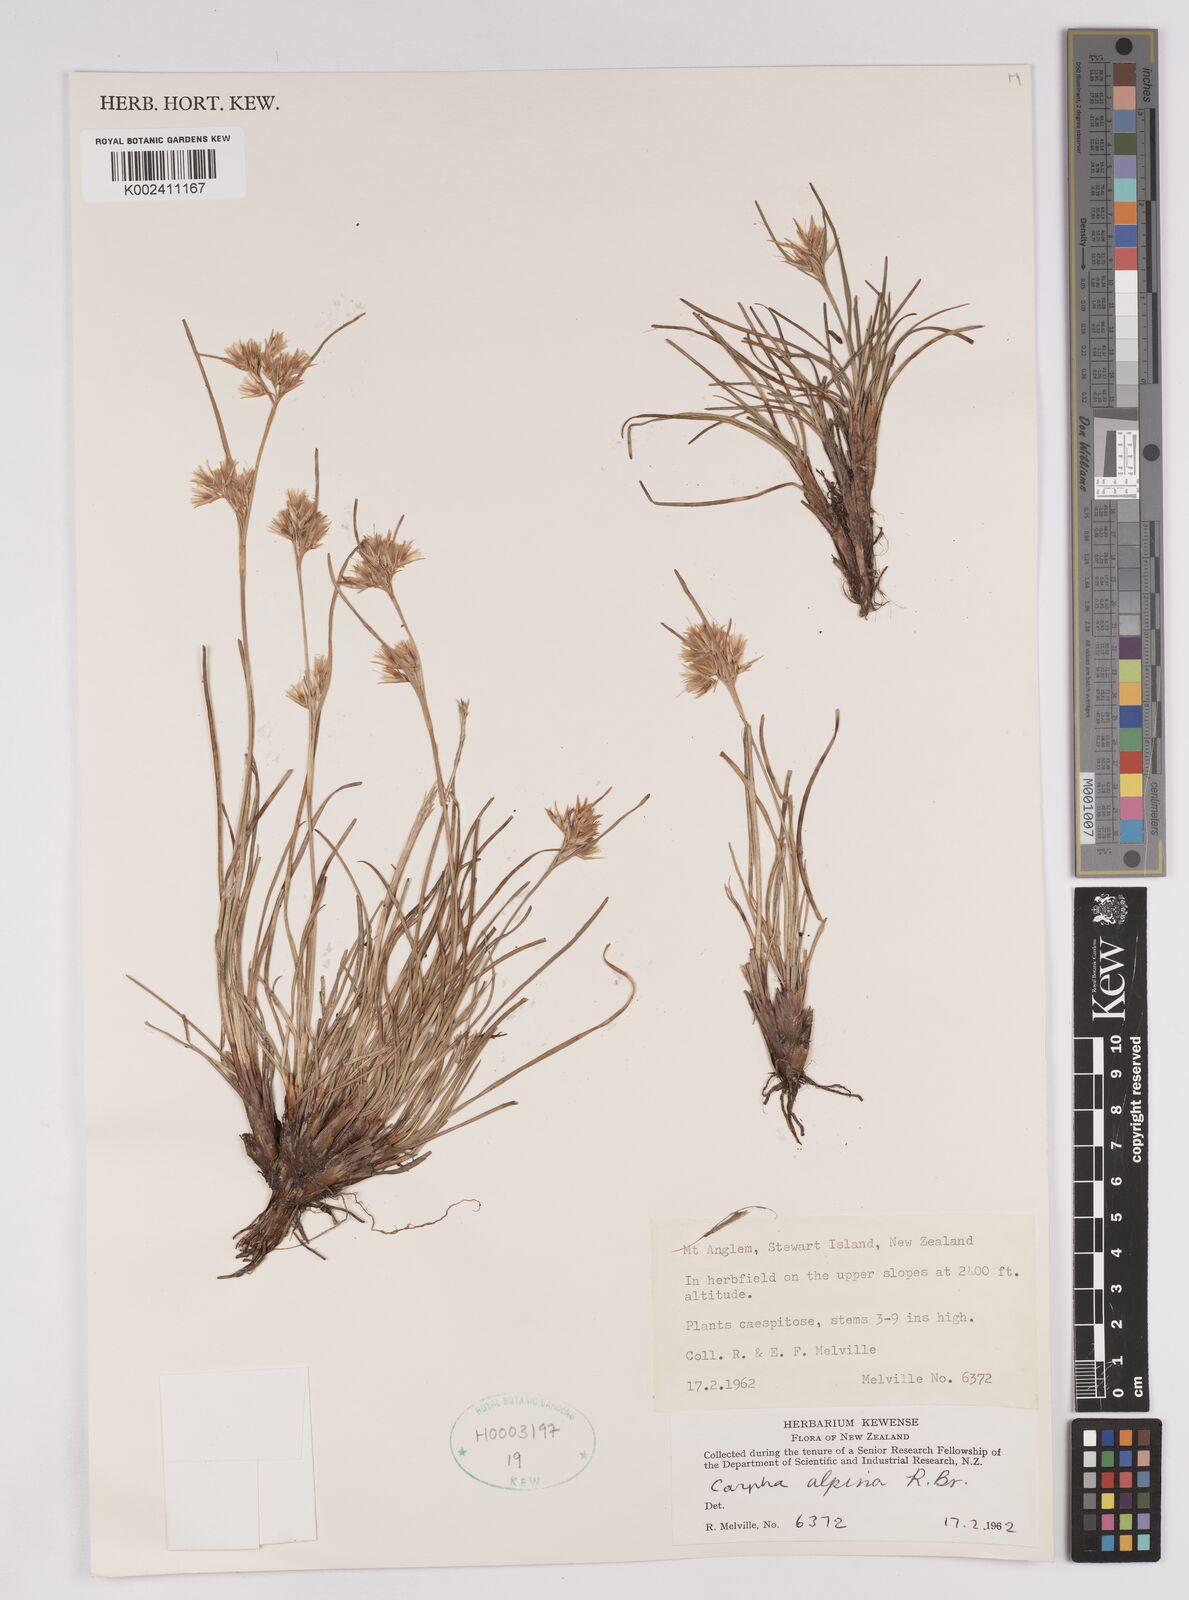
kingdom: Plantae
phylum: Tracheophyta
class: Liliopsida
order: Poales
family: Cyperaceae
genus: Carpha
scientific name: Carpha alpina
